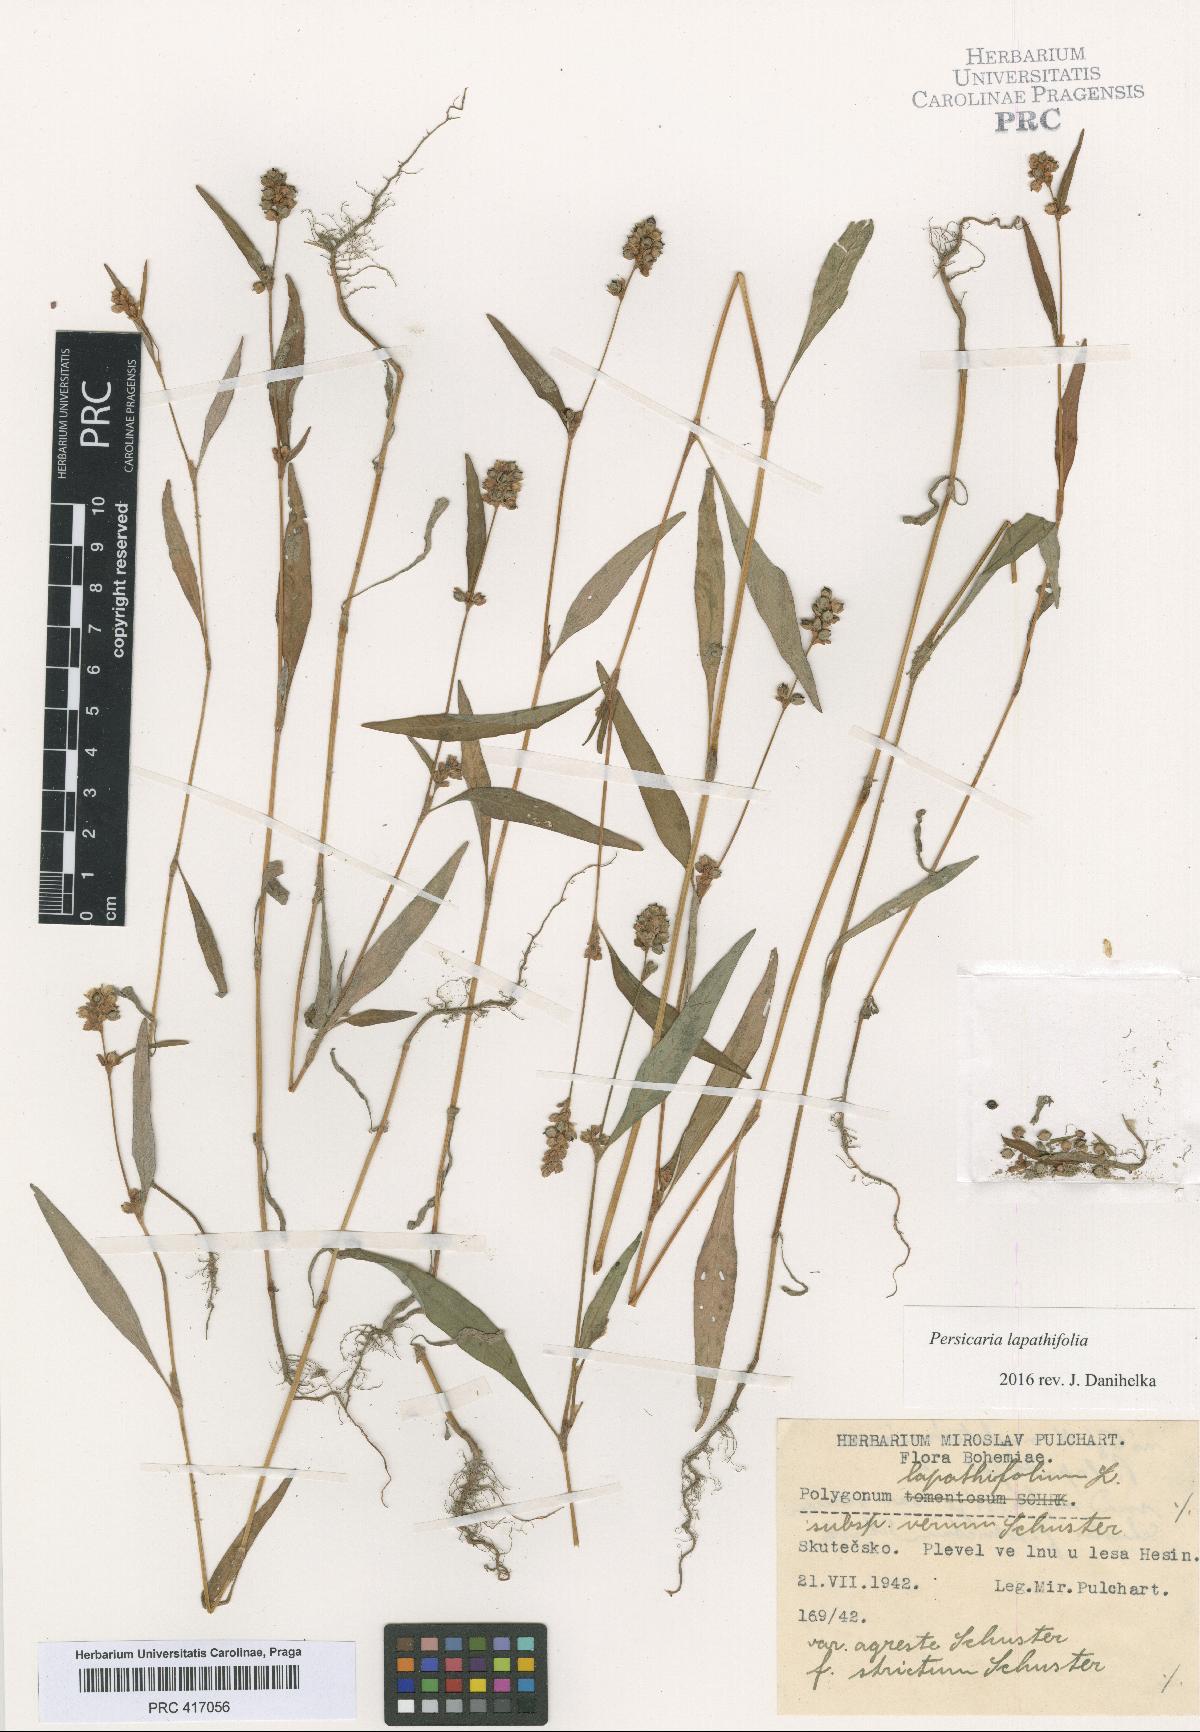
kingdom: Plantae
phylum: Tracheophyta
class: Magnoliopsida
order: Caryophyllales
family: Polygonaceae
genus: Persicaria
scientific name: Persicaria lapathifolia
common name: Curlytop knotweed
